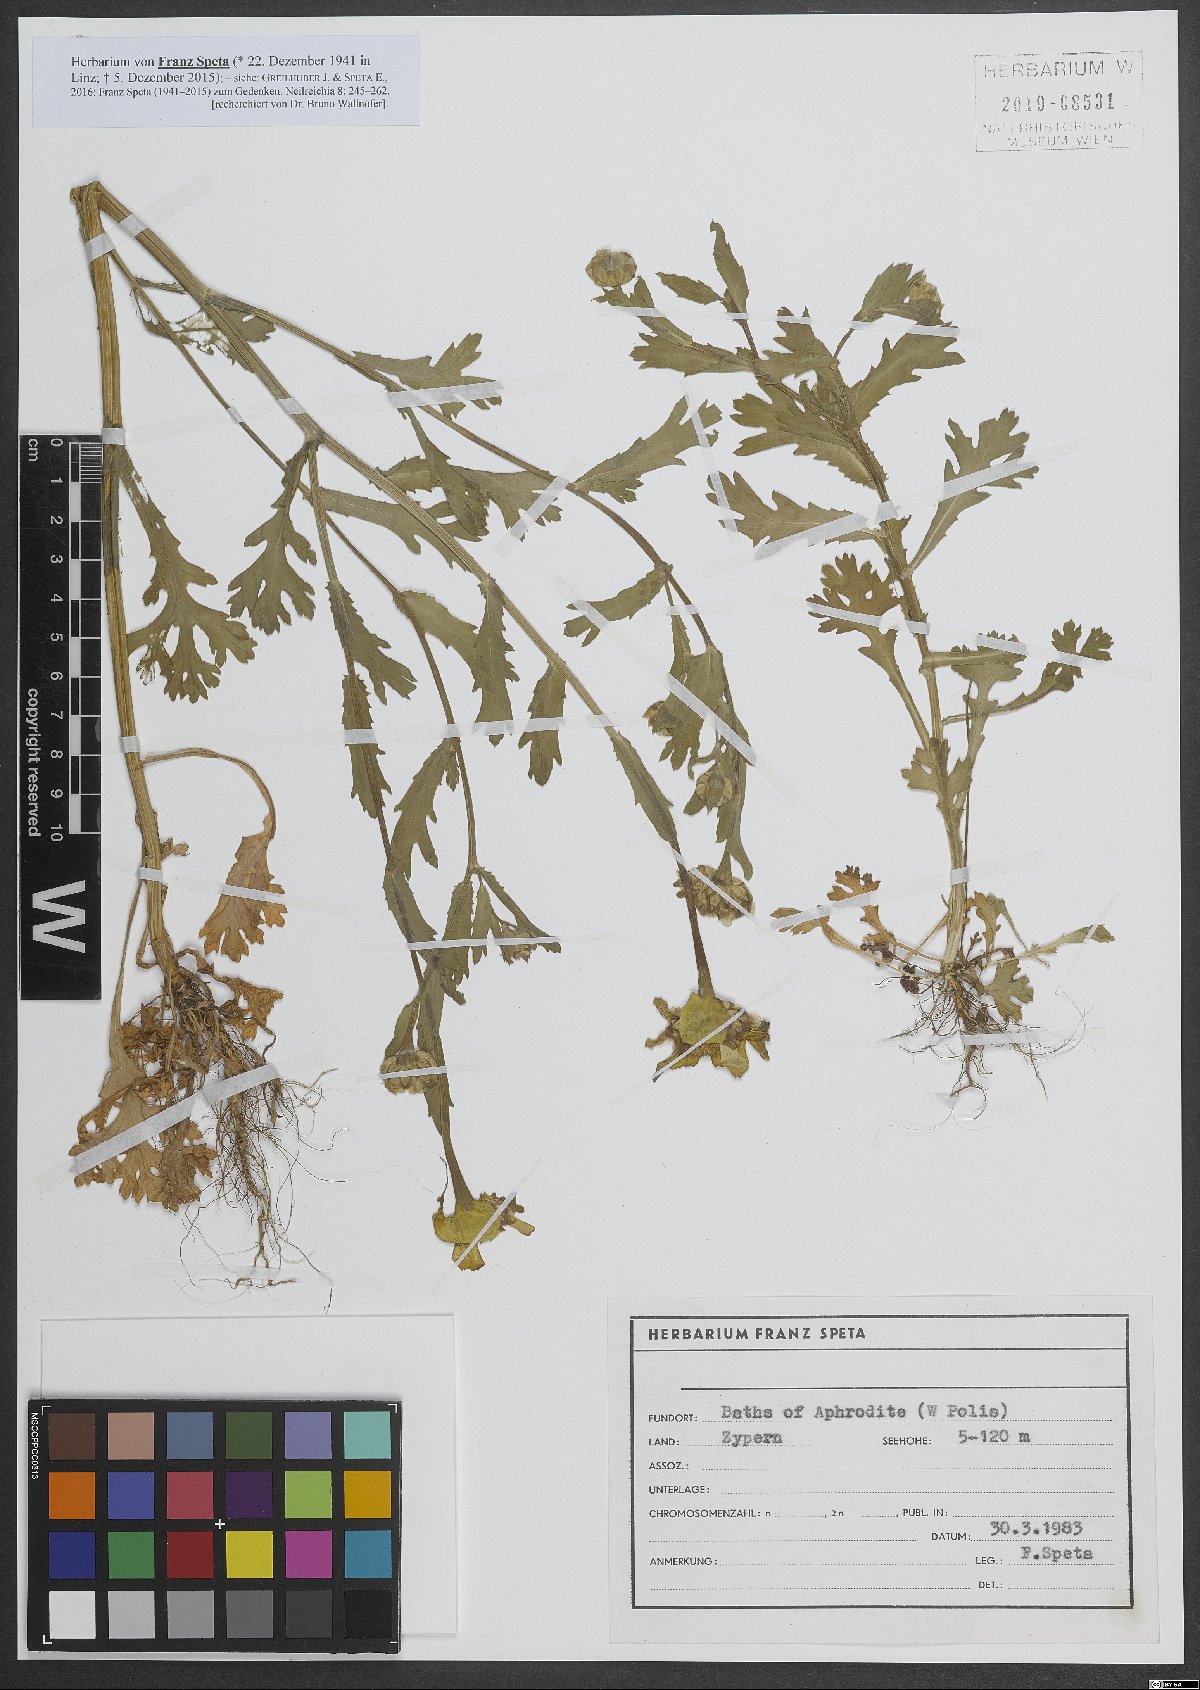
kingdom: Plantae
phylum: Tracheophyta
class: Magnoliopsida
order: Asterales
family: Asteraceae
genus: Glebionis
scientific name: Glebionis segetum
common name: Corndaisy
